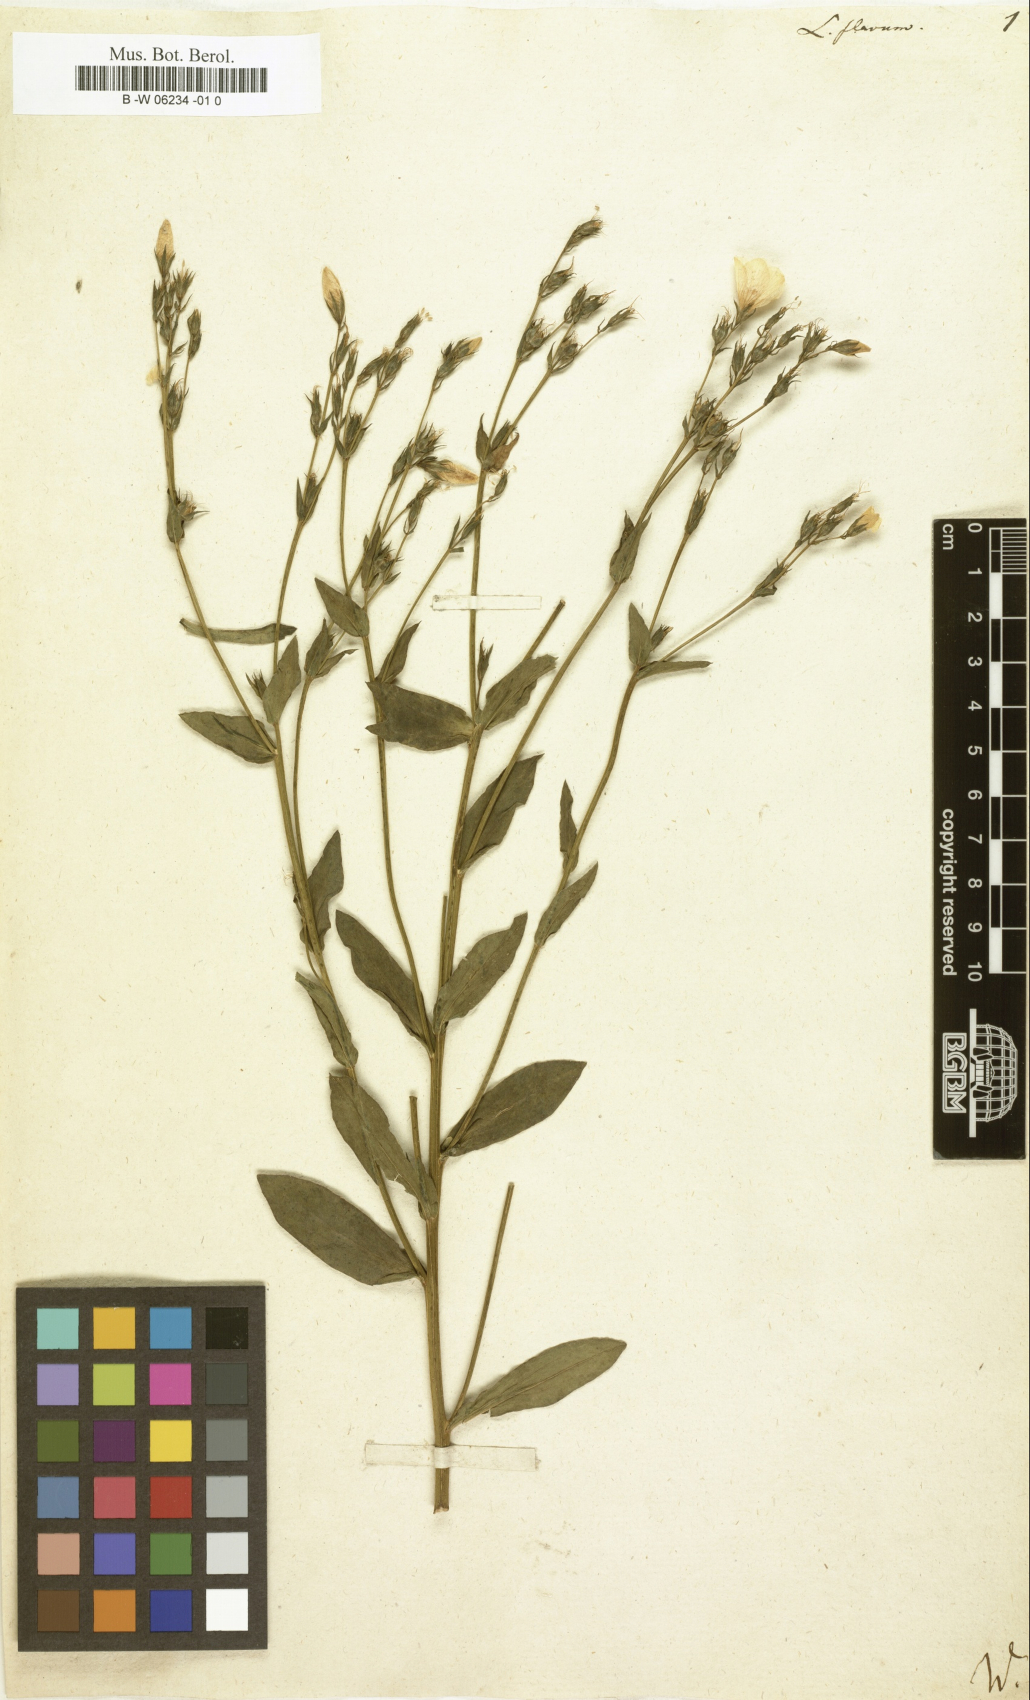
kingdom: Plantae
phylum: Tracheophyta
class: Magnoliopsida
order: Malpighiales
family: Linaceae
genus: Linum
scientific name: Linum flavum
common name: Yellow flax
